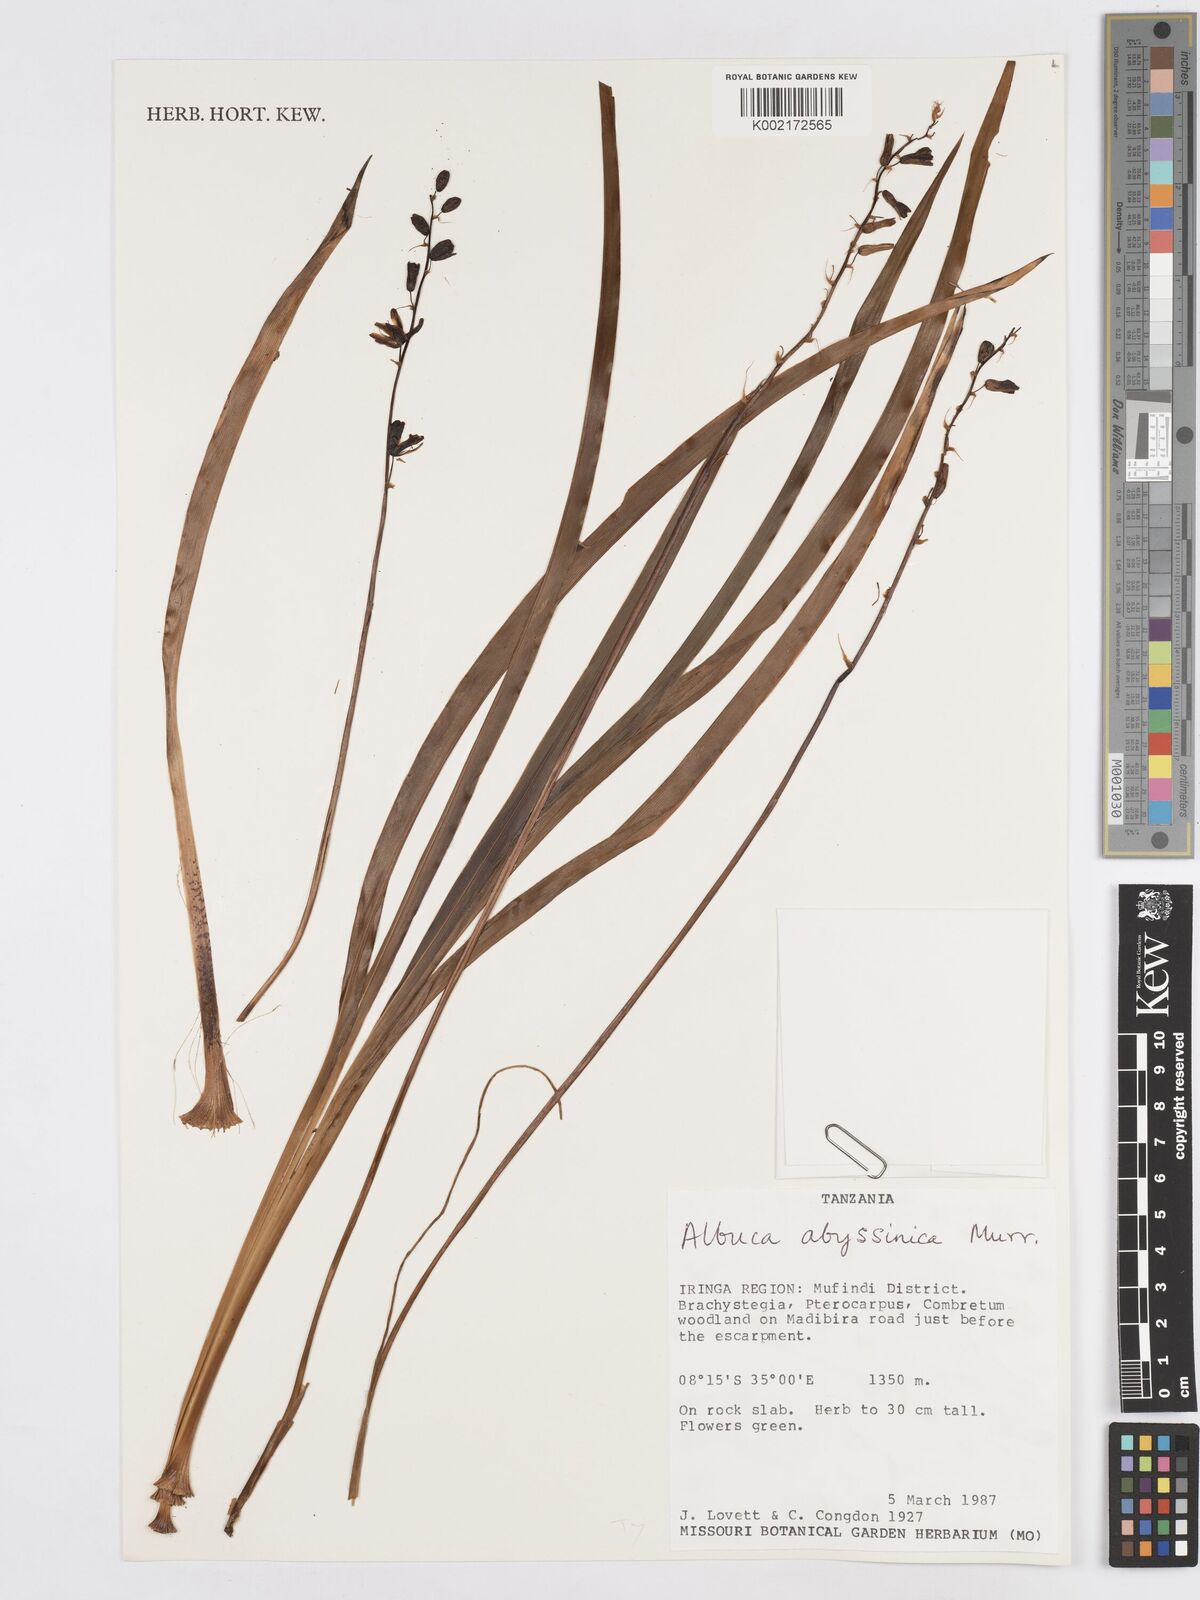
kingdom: Plantae
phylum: Tracheophyta
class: Liliopsida
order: Asparagales
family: Asparagaceae
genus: Albuca
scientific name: Albuca abyssinica
